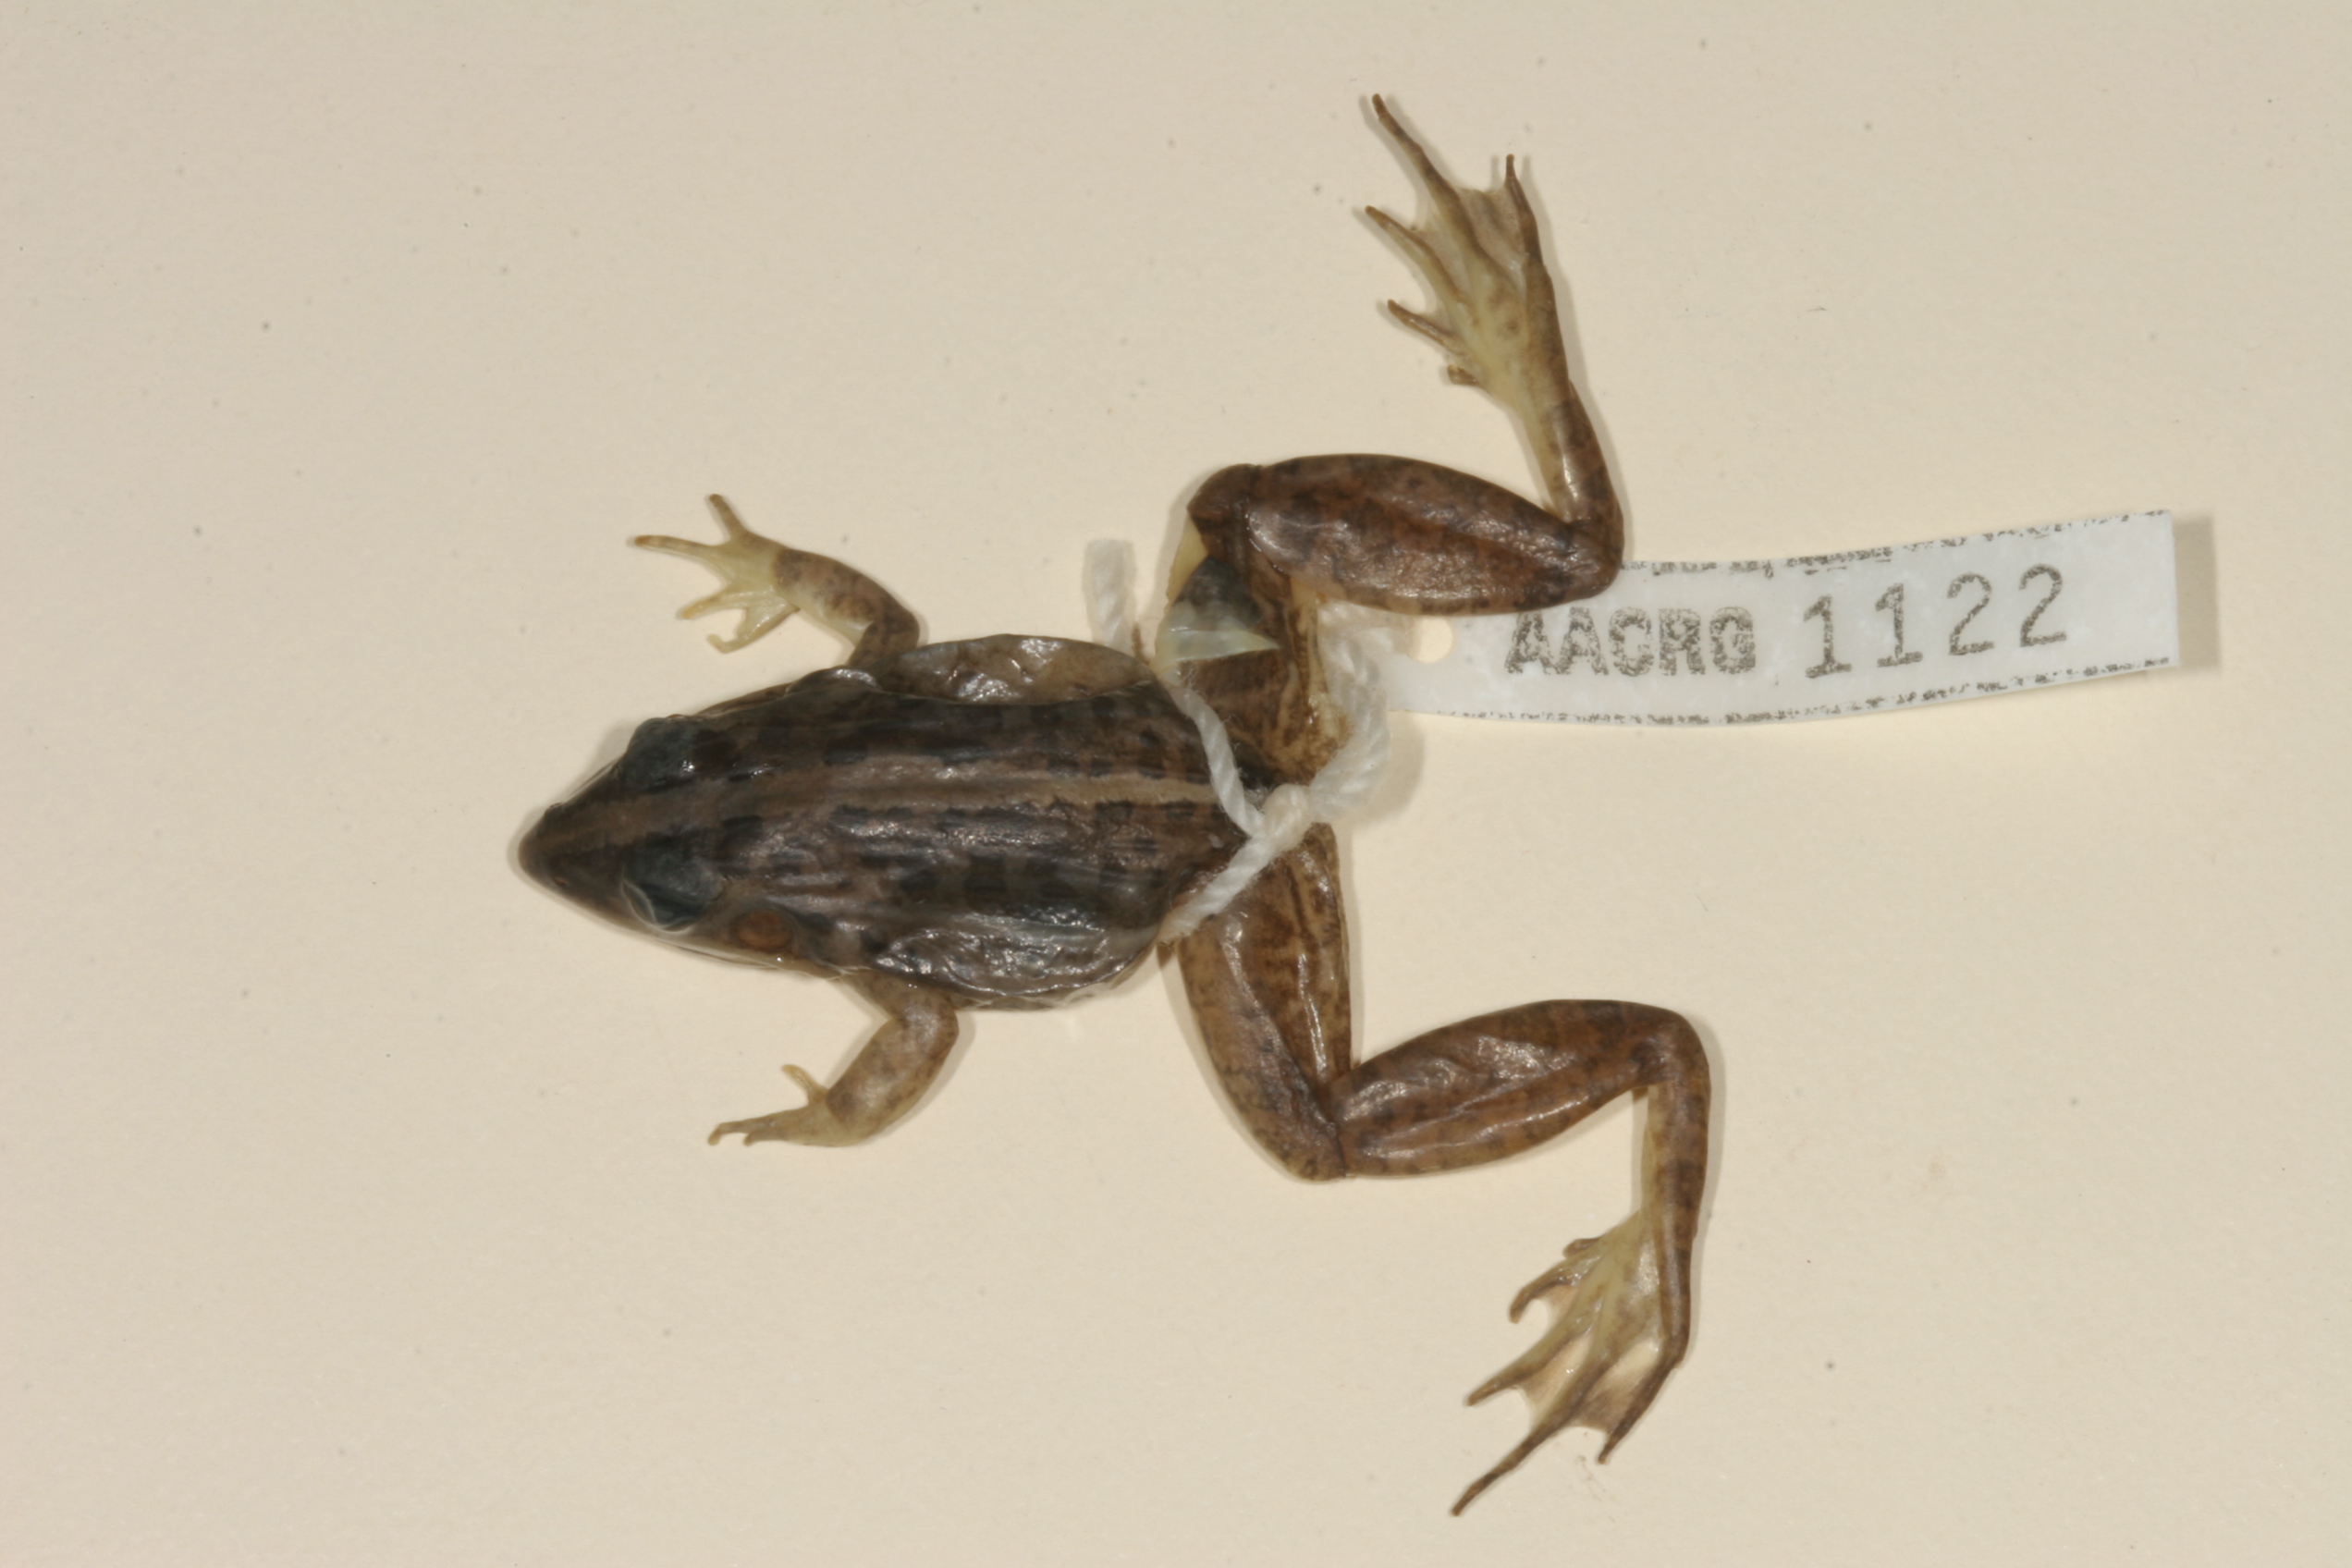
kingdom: Animalia
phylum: Chordata
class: Amphibia
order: Anura
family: Ptychadenidae
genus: Ptychadena
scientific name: Ptychadena mapacha
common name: Mapach ridged frog
